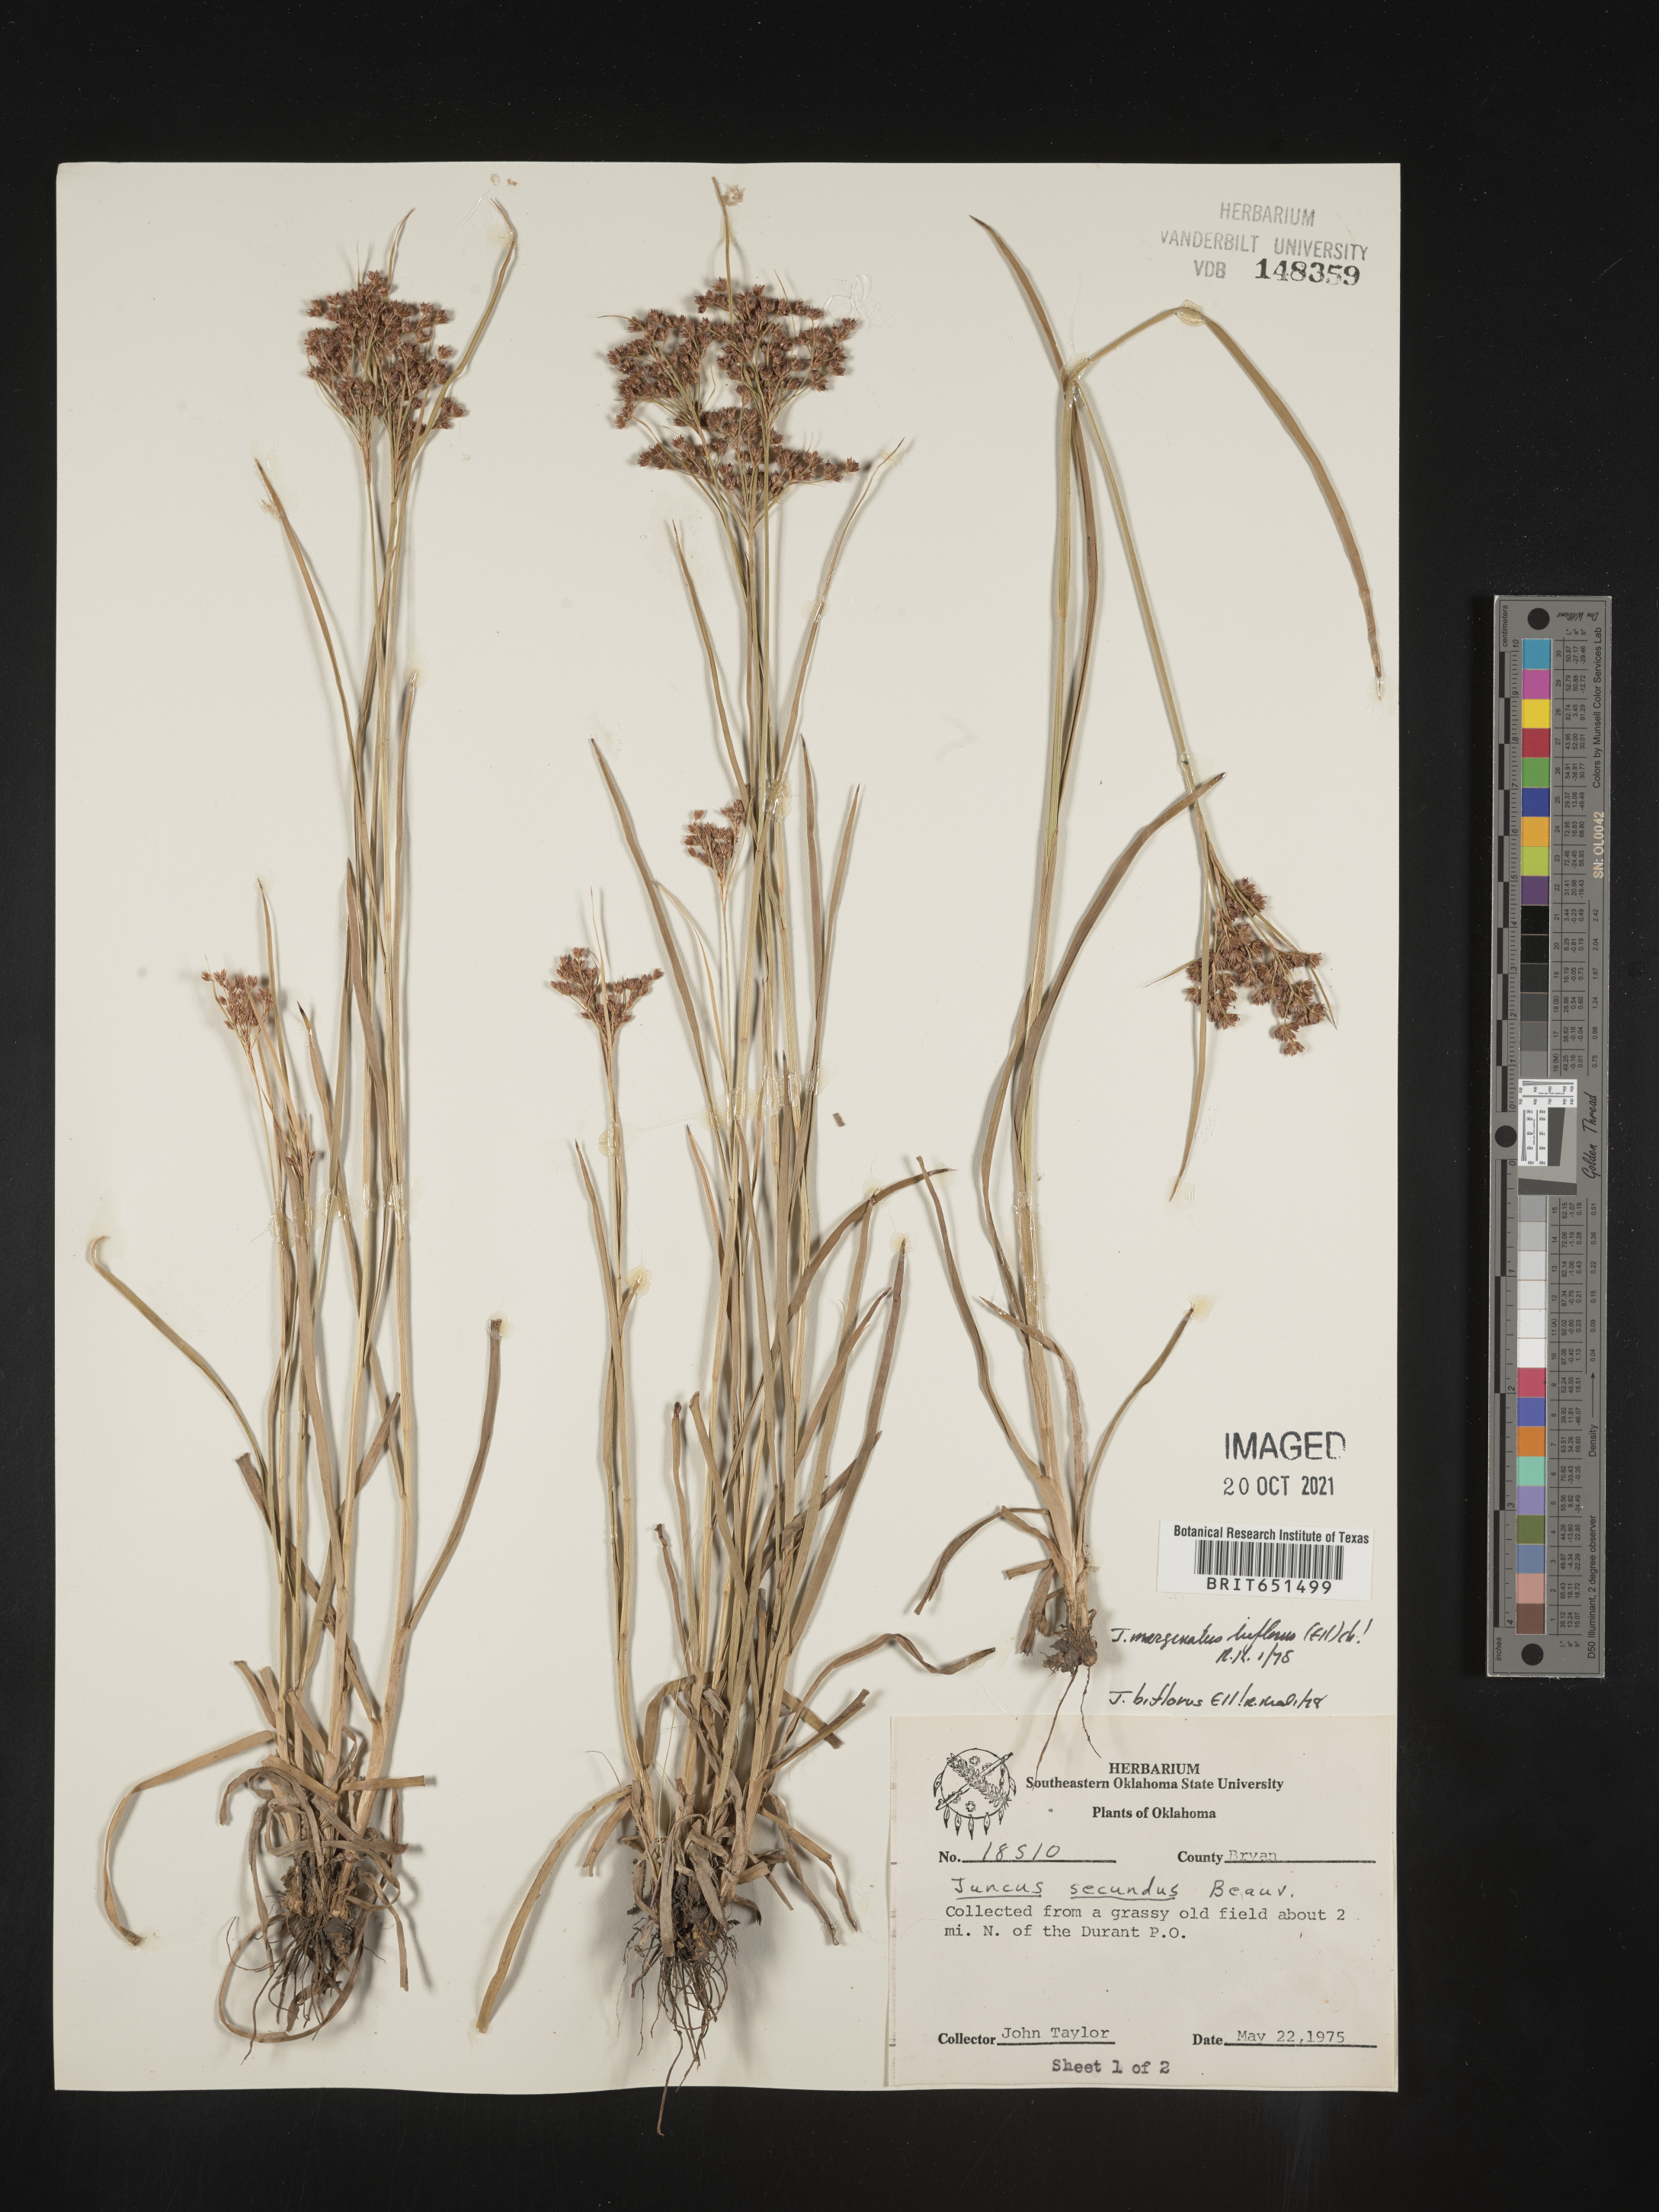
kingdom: Plantae
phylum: Tracheophyta
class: Liliopsida
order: Poales
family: Juncaceae
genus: Juncus
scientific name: Juncus biflorus
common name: Two-flowered rush
